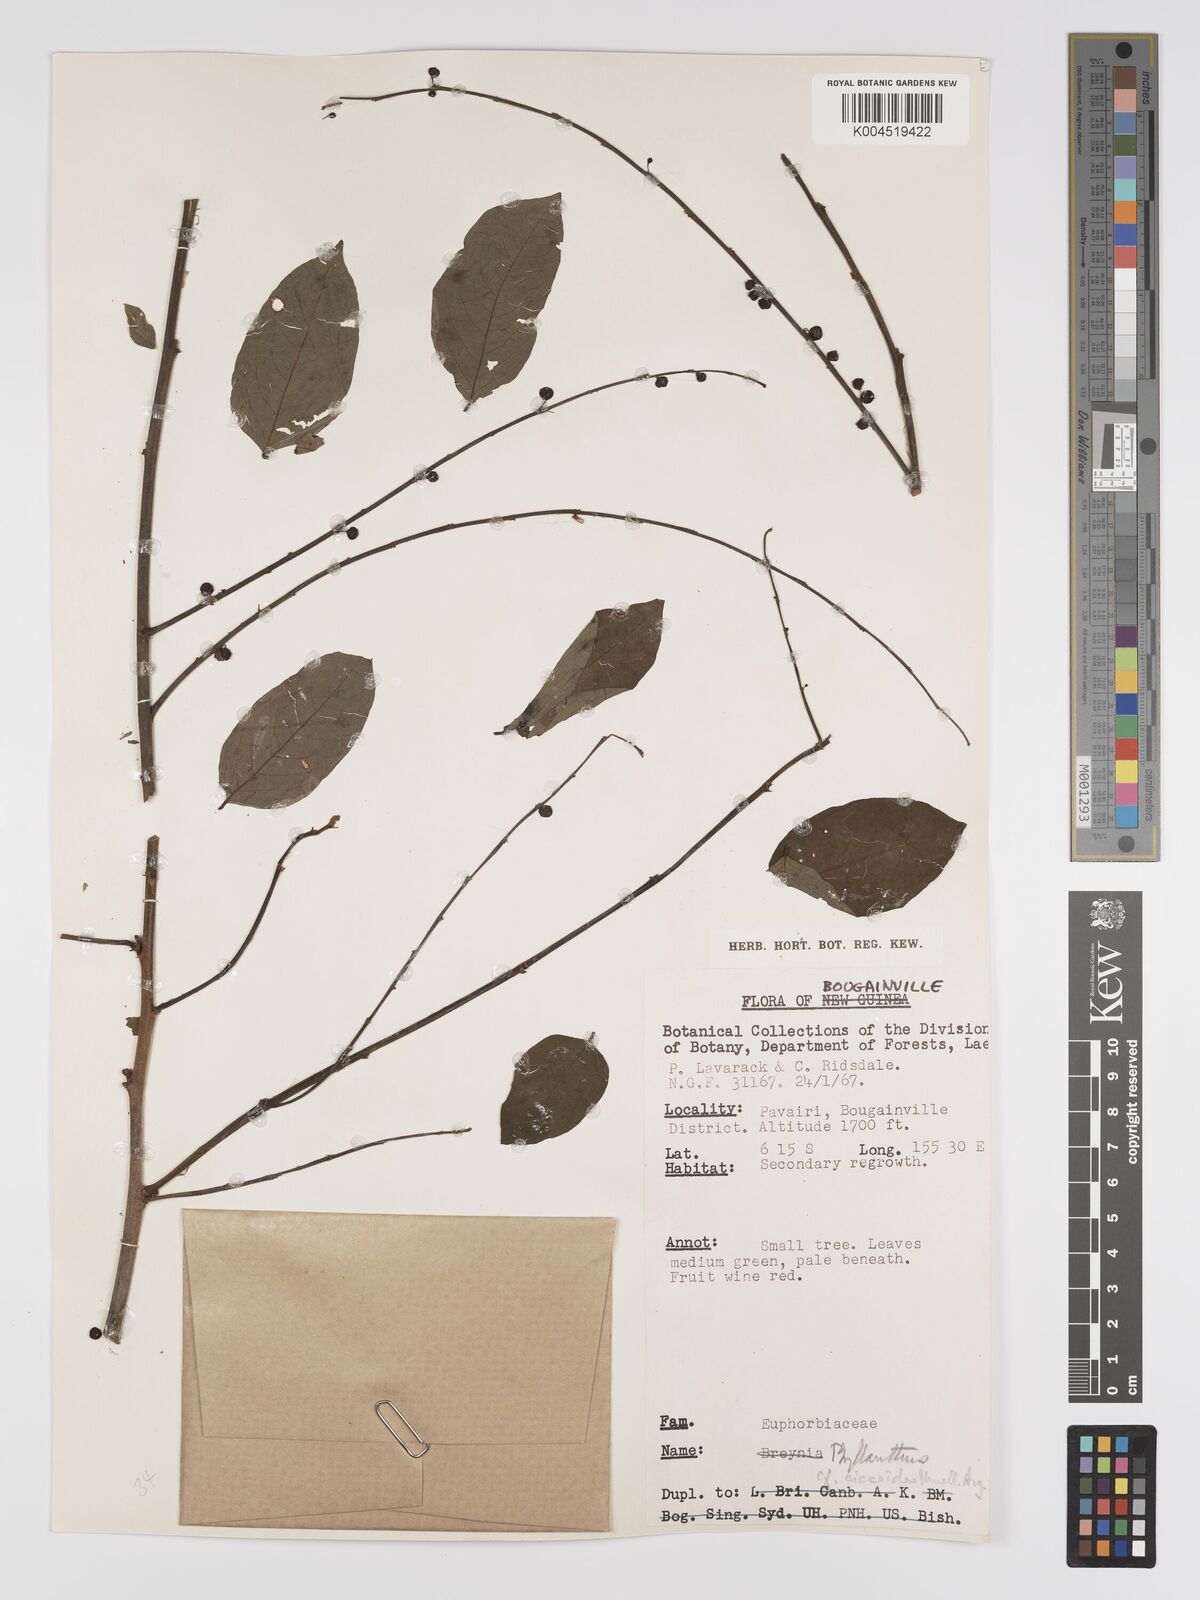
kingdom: Plantae
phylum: Tracheophyta
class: Magnoliopsida
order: Malpighiales
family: Phyllanthaceae
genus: Phyllanthus
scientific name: Phyllanthus ciccoides
